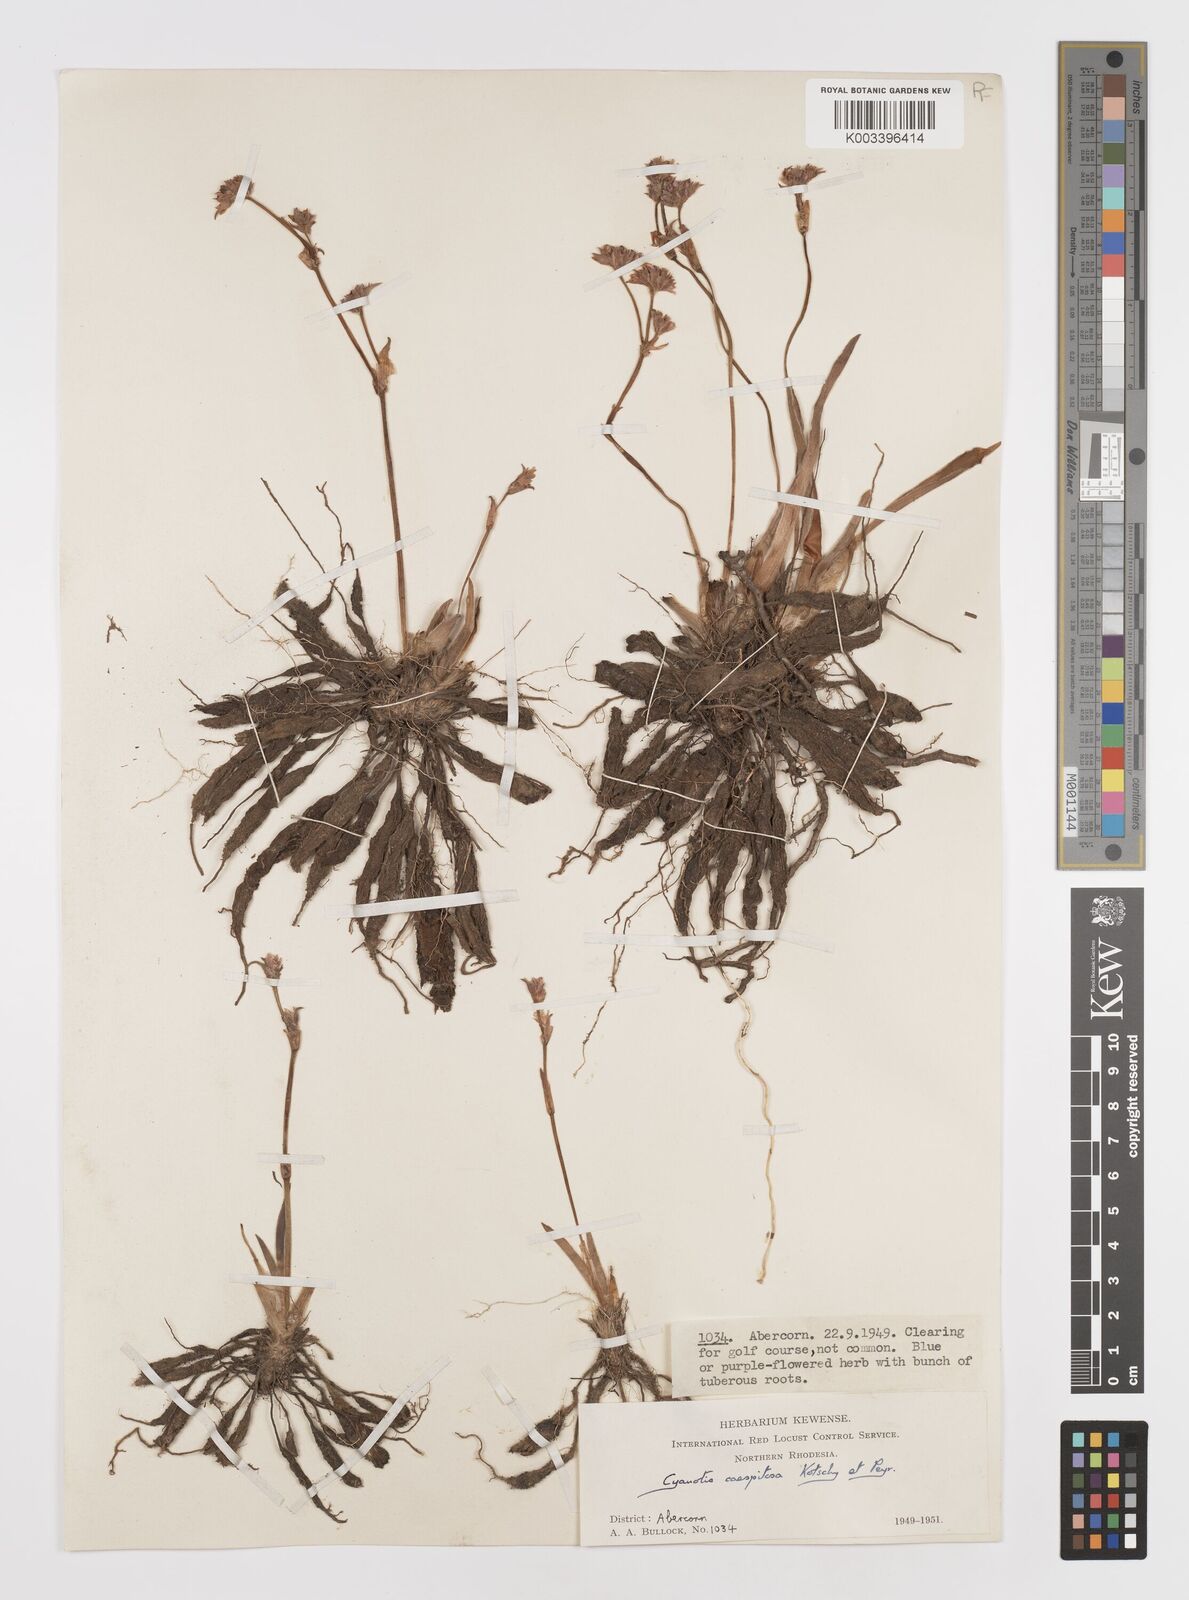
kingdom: Plantae
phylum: Tracheophyta
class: Liliopsida
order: Commelinales
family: Commelinaceae
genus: Cyanotis
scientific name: Cyanotis caespitosa
